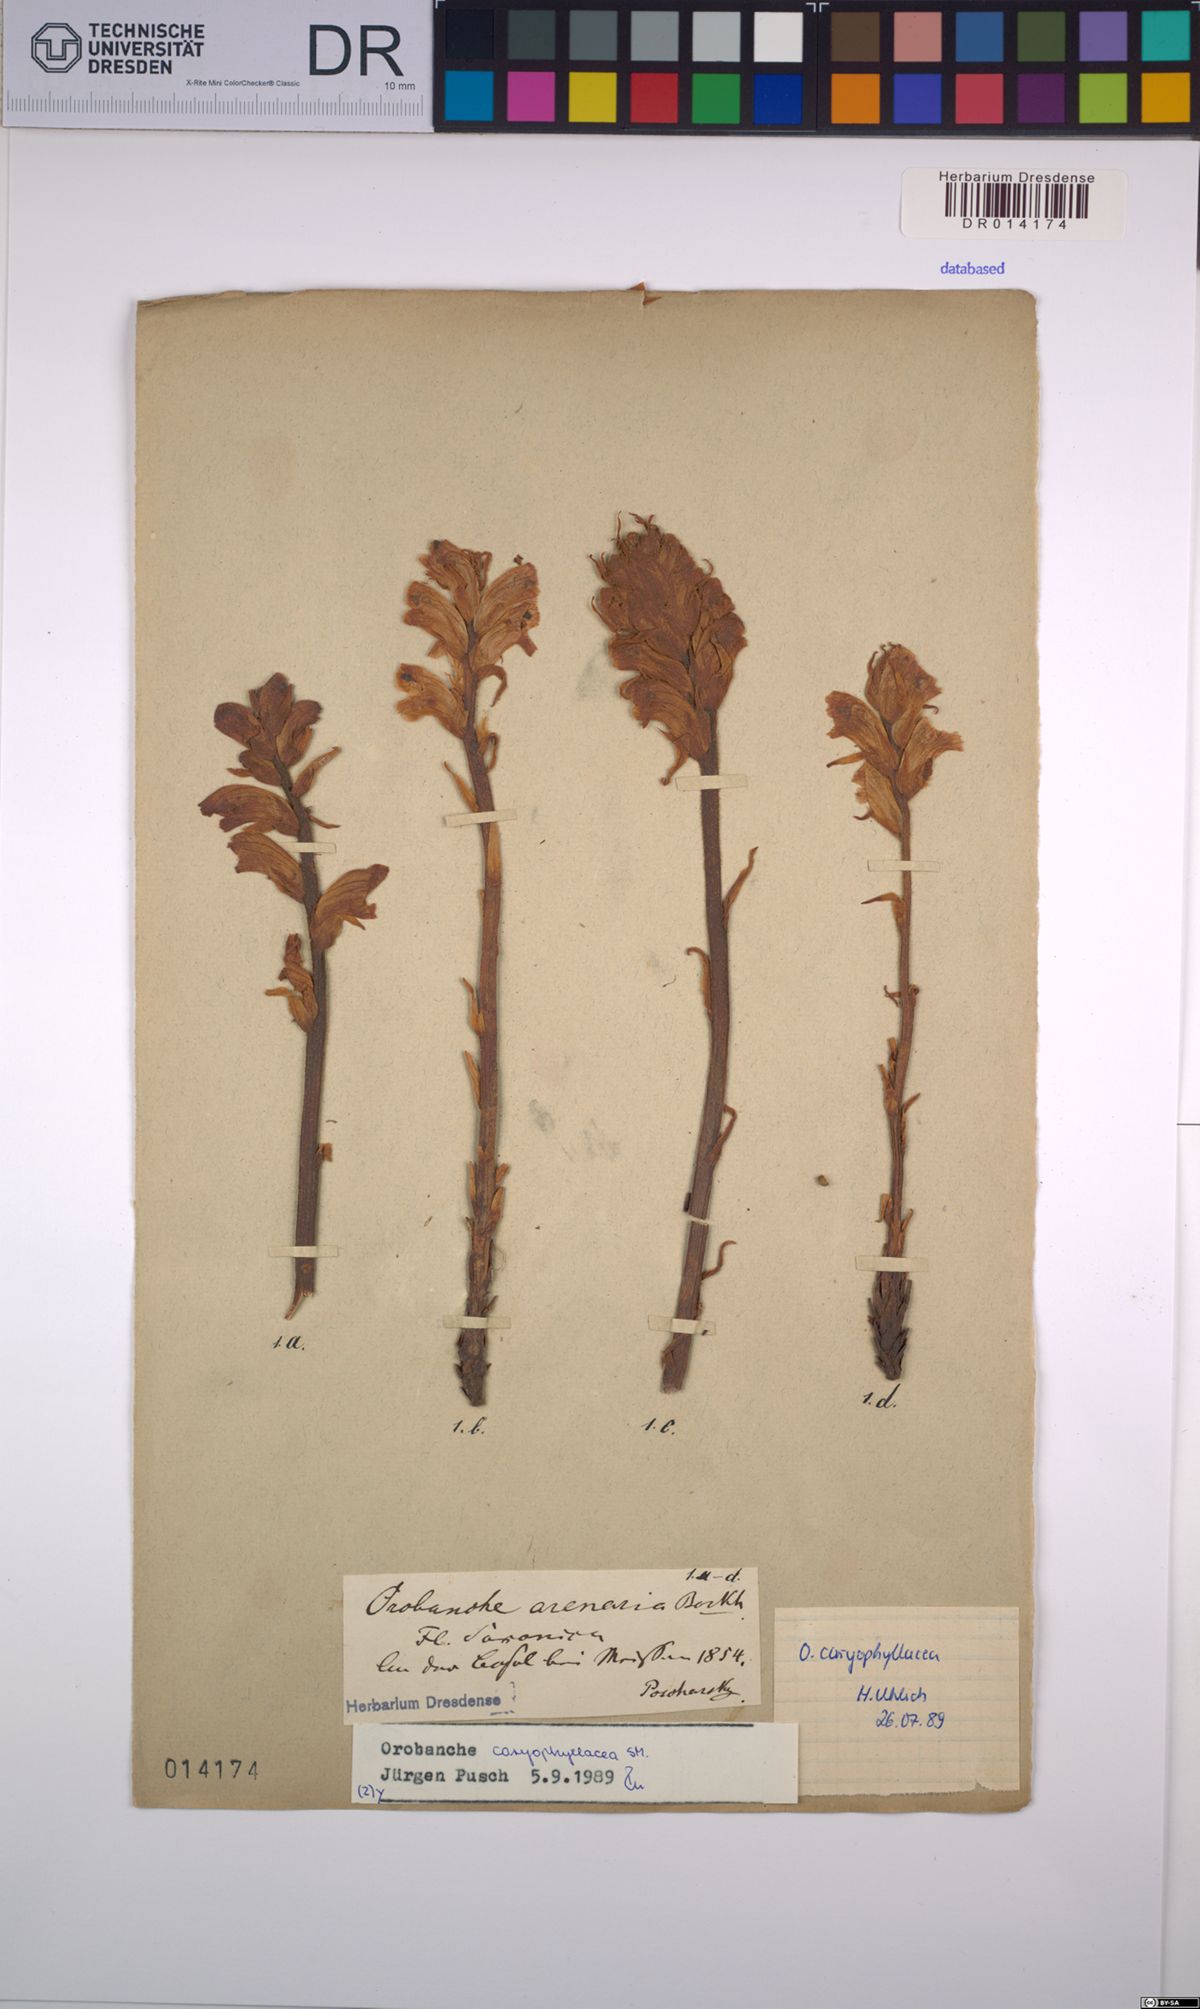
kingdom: Plantae
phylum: Tracheophyta
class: Magnoliopsida
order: Lamiales
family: Orobanchaceae
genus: Orobanche
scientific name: Orobanche caryophyllacea
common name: Bedstraw broomrape
